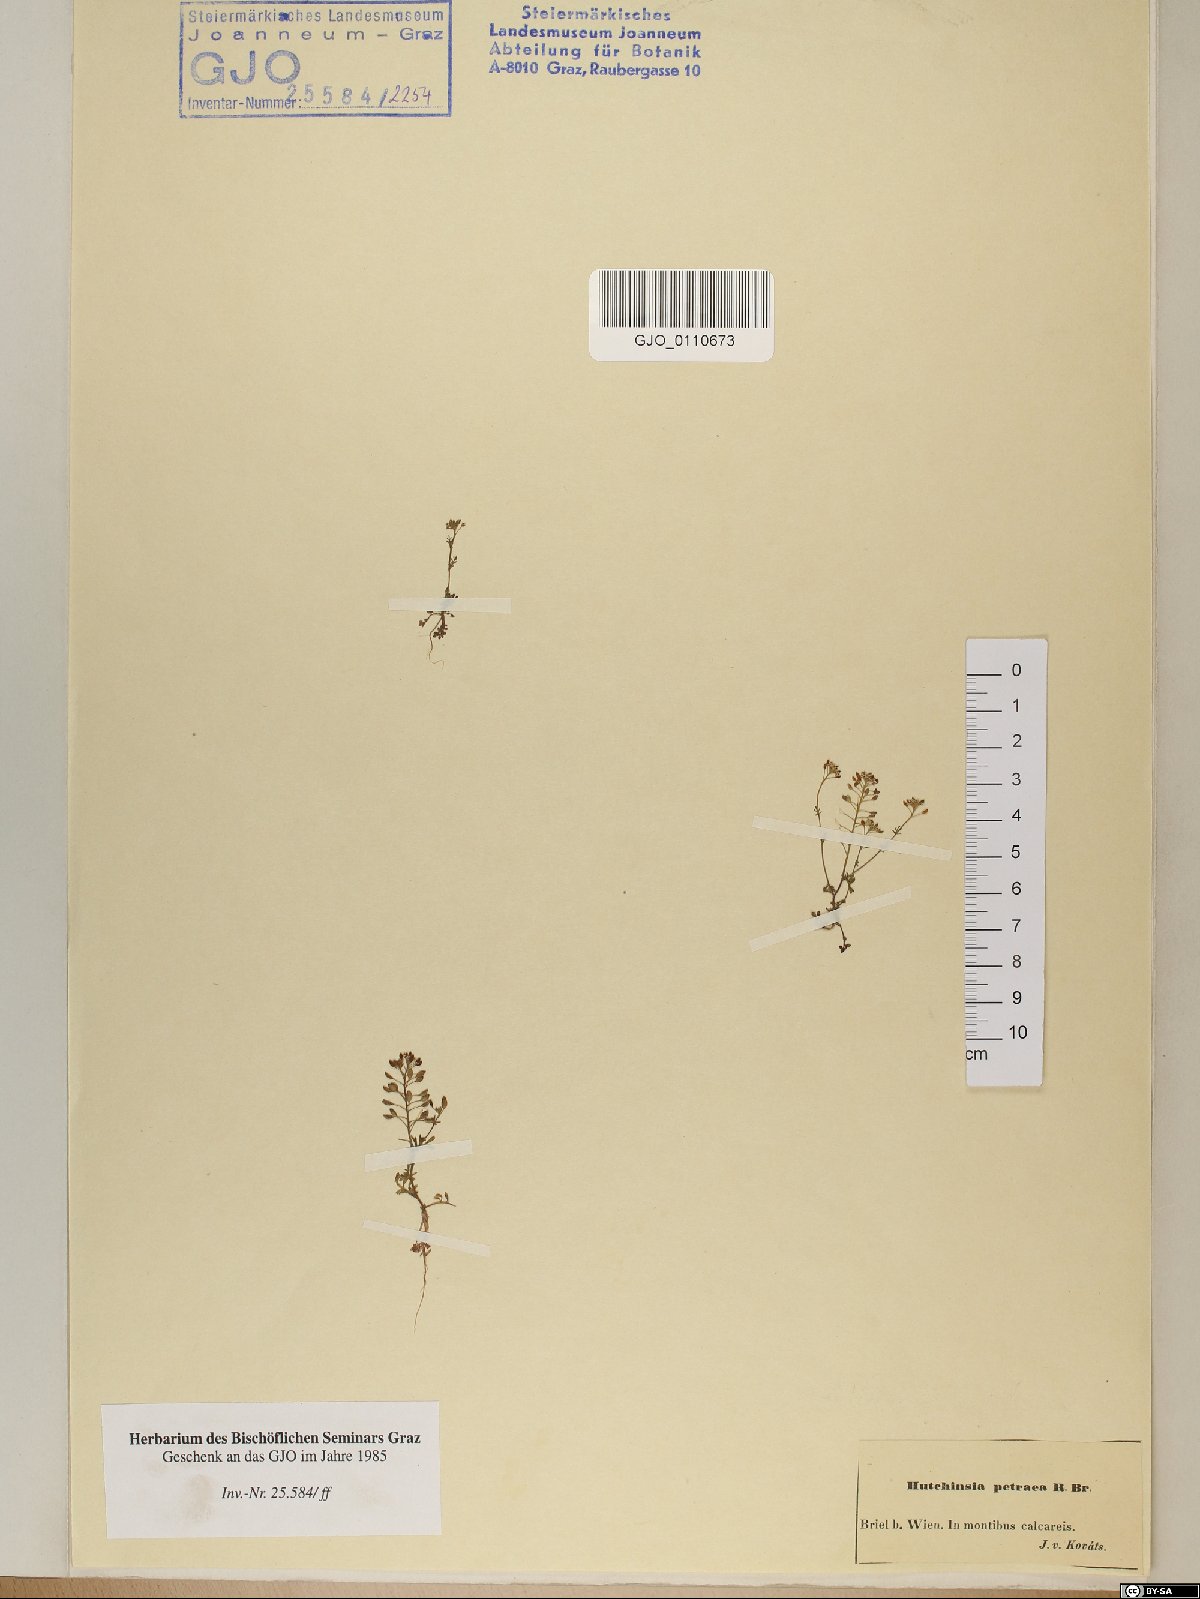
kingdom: Plantae
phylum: Tracheophyta
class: Magnoliopsida
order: Brassicales
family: Brassicaceae
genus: Hornungia
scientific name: Hornungia petraea
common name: Hutchinsia
